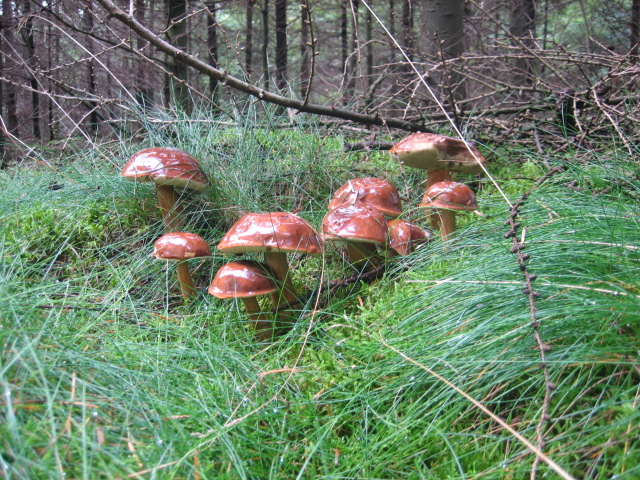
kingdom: Fungi
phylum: Basidiomycota
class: Agaricomycetes
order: Boletales
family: Boletaceae
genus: Imleria
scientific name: Imleria badia
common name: brunstokket rørhat
